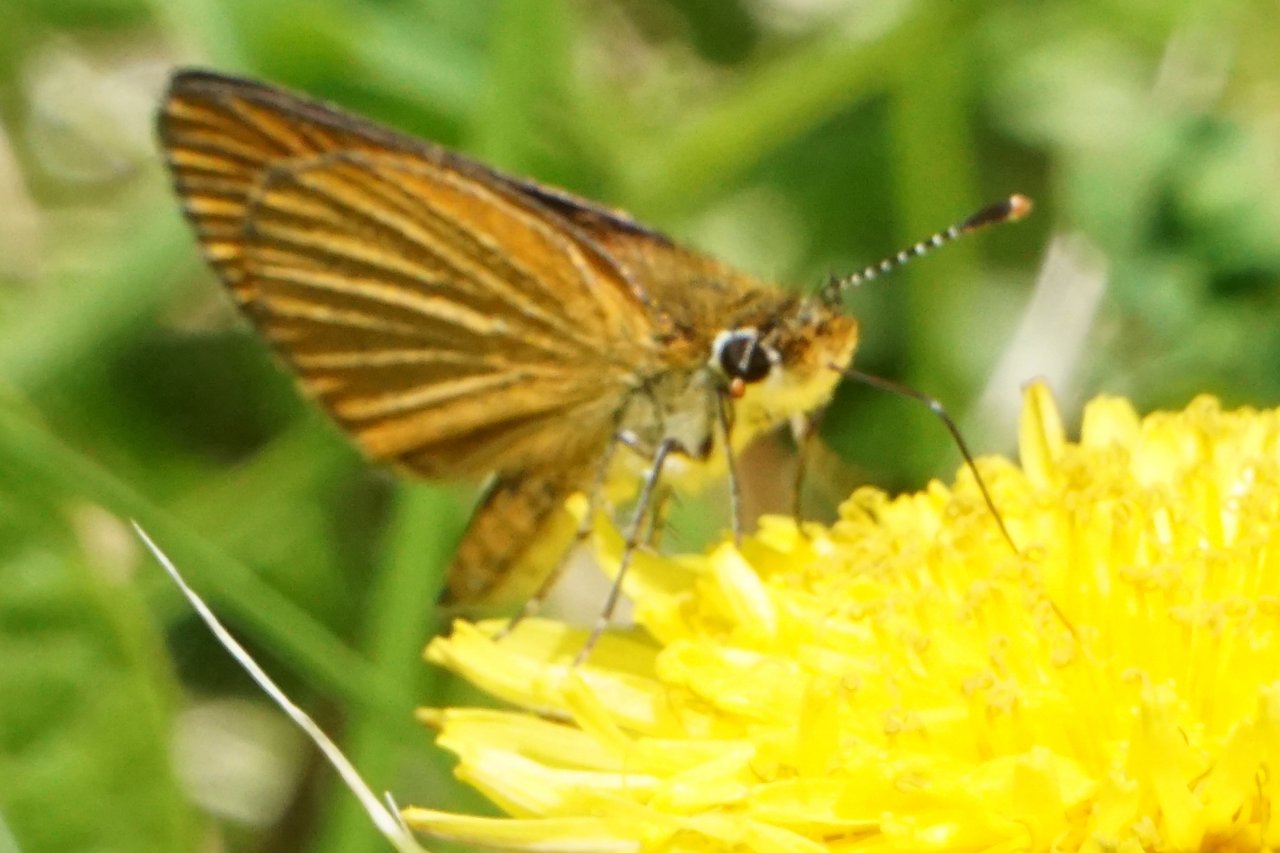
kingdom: Animalia
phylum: Arthropoda
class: Insecta
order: Lepidoptera
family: Hesperiidae
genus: Ancyloxypha
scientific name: Ancyloxypha numitor
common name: Least Skipper
